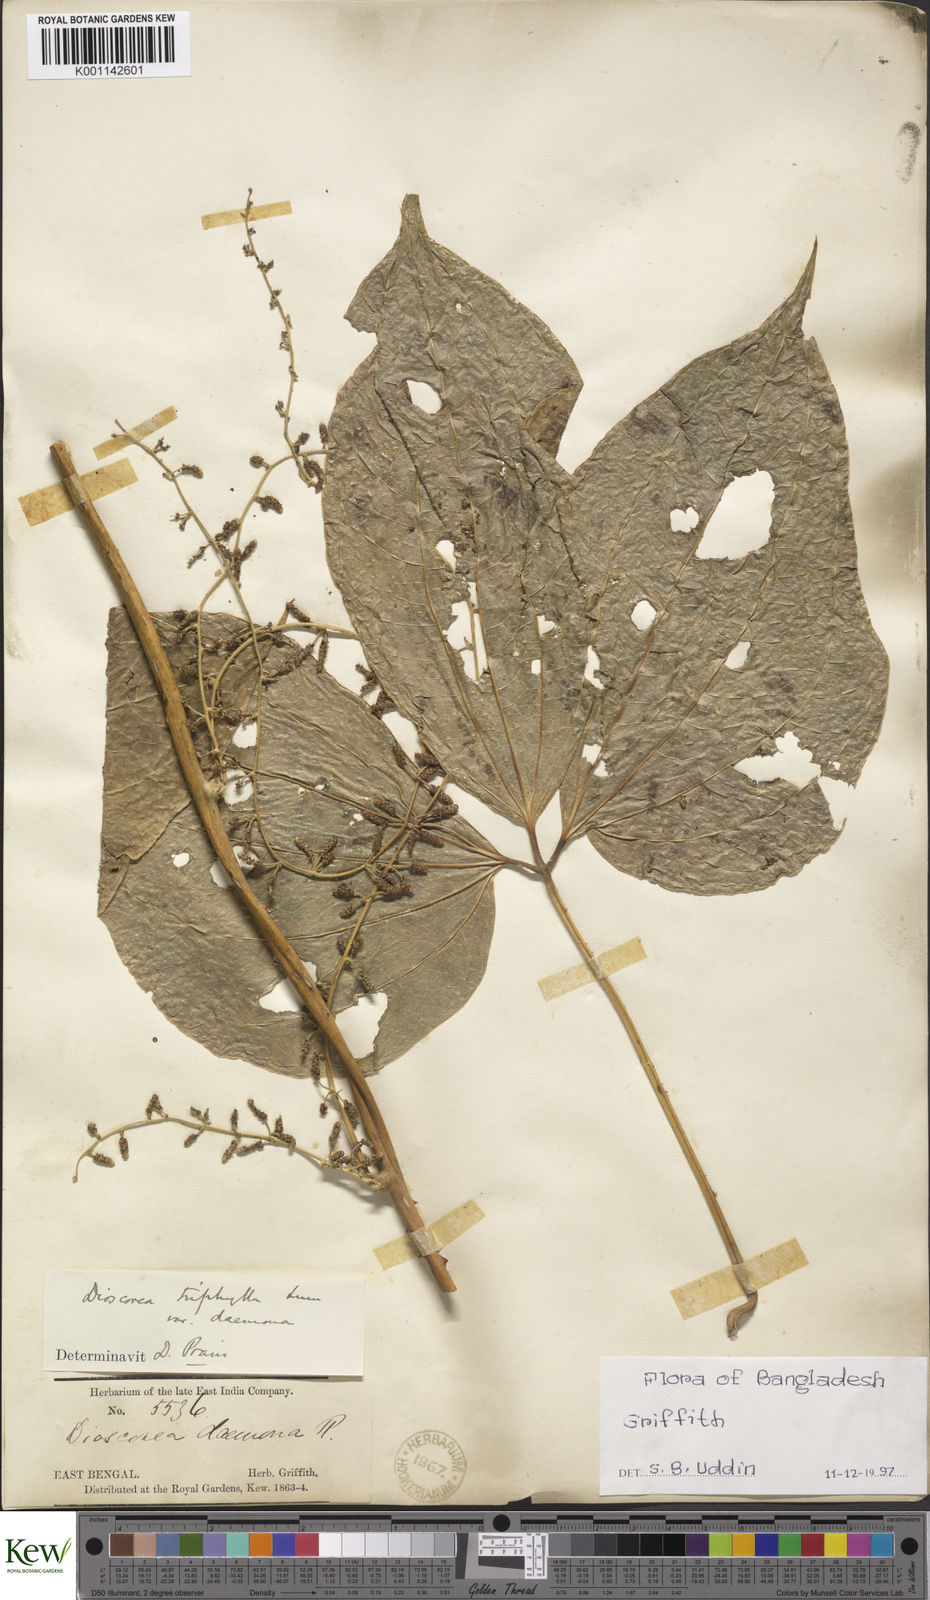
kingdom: Plantae
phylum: Tracheophyta
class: Liliopsida
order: Dioscoreales
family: Dioscoreaceae
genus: Dioscorea
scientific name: Dioscorea pentaphylla
